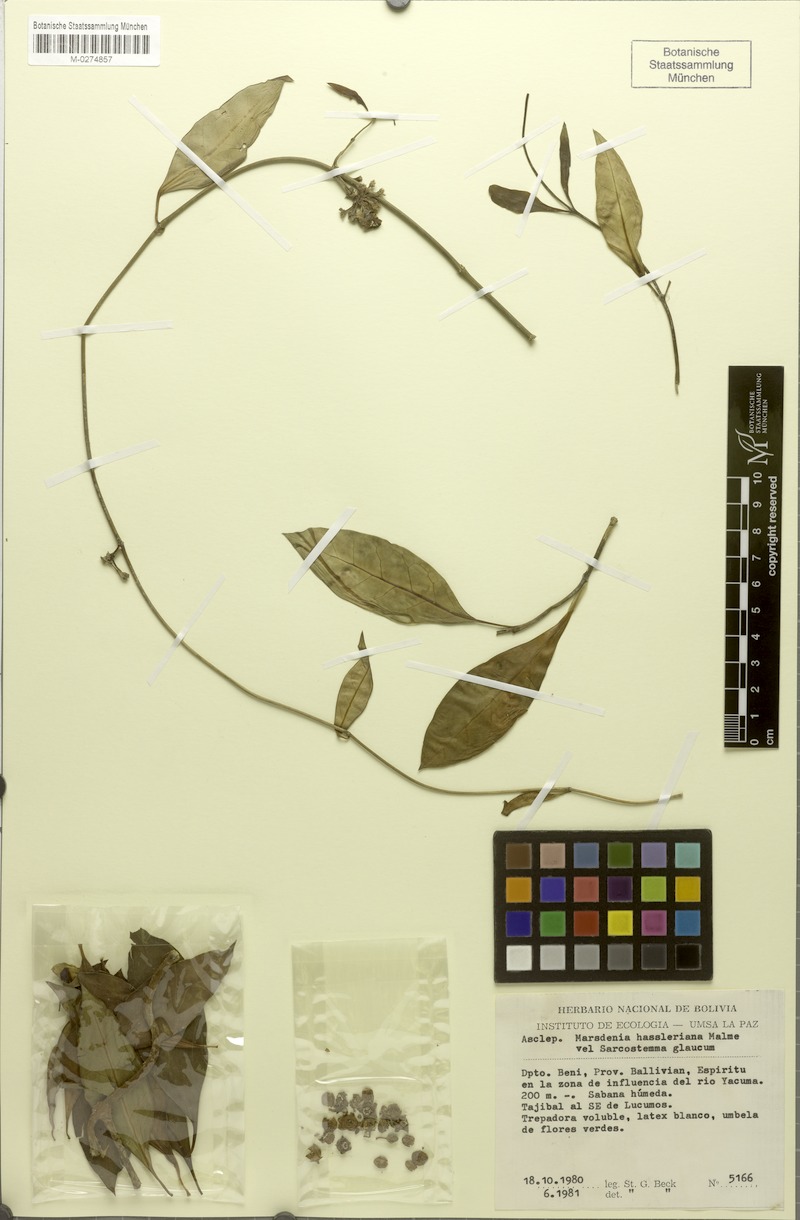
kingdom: Plantae
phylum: Tracheophyta
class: Magnoliopsida
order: Gentianales
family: Apocynaceae
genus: Ruehssia
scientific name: Ruehssia beckii
